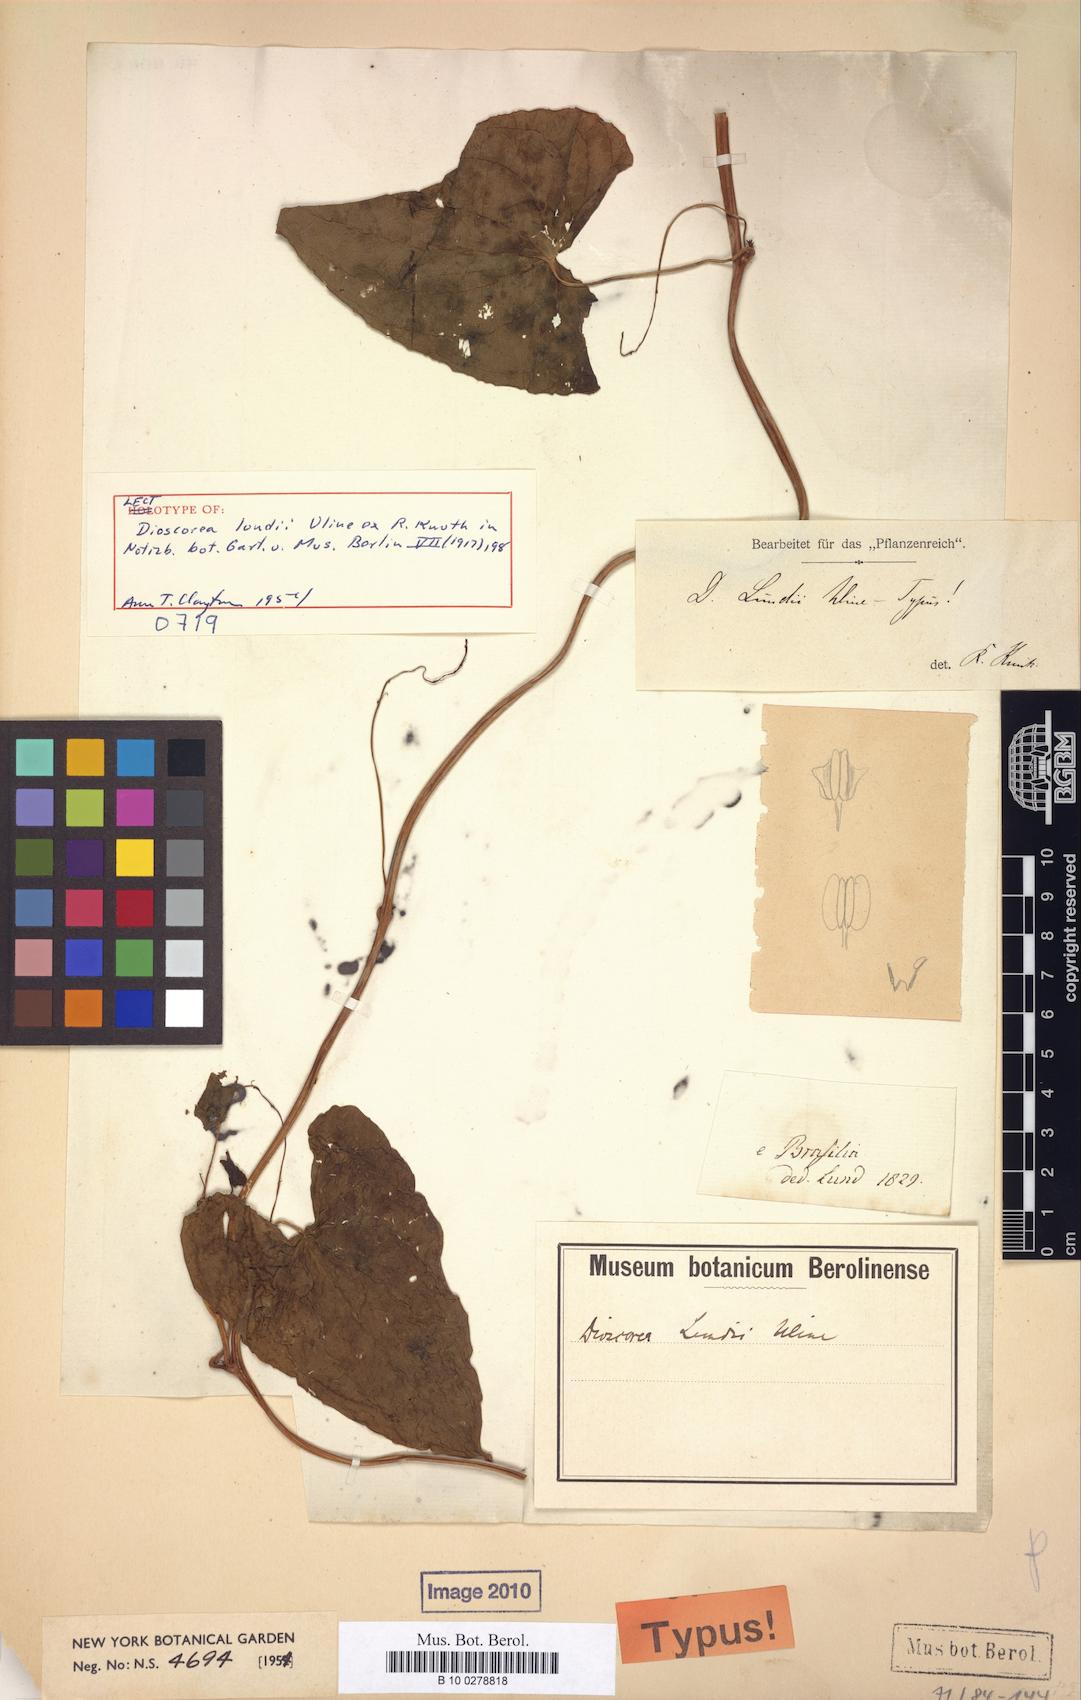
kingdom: Plantae
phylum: Tracheophyta
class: Liliopsida
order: Dioscoreales
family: Dioscoreaceae
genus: Dioscorea
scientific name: Dioscorea lundii
